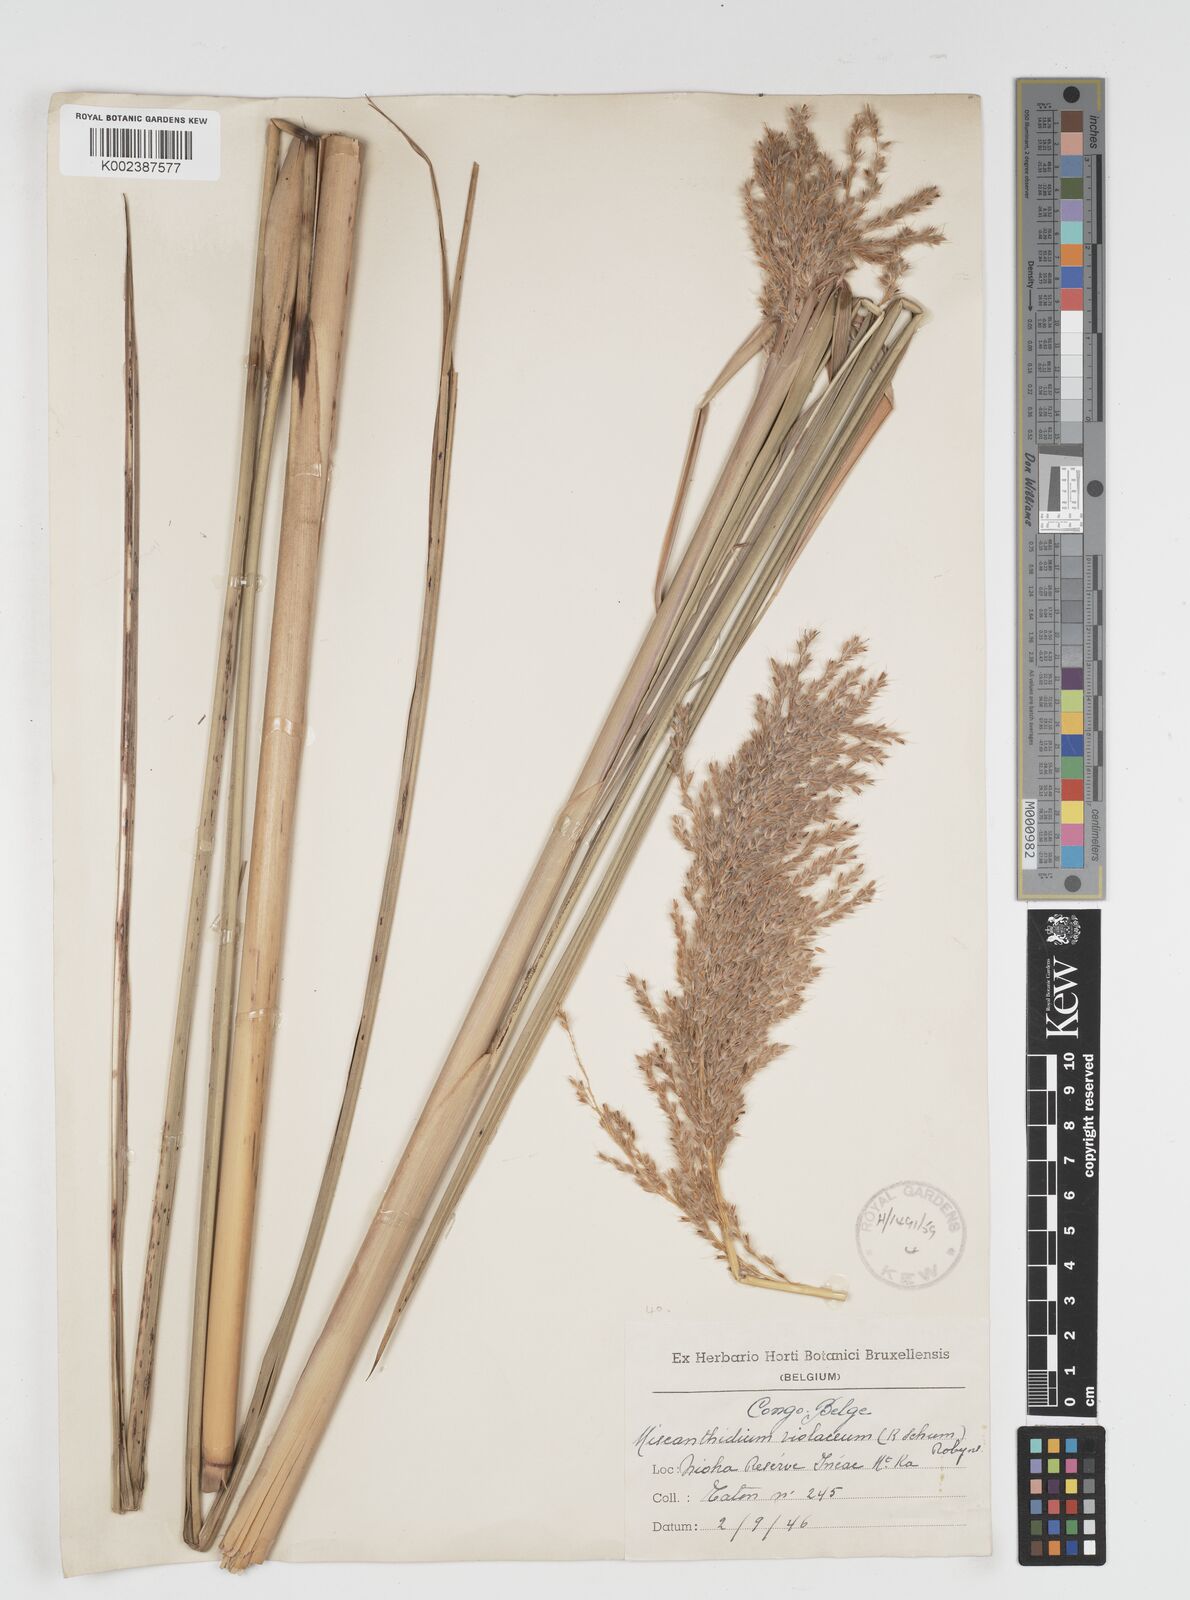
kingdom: Plantae
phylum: Tracheophyta
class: Liliopsida
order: Poales
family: Poaceae
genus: Miscanthidium
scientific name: Miscanthidium violaceum
